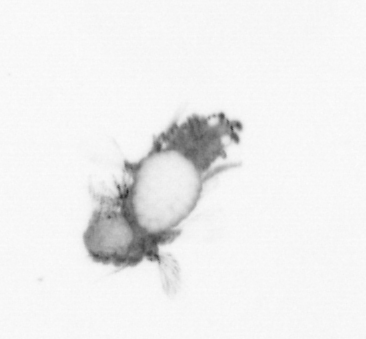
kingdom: Animalia
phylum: Annelida
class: Polychaeta
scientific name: Polychaeta
